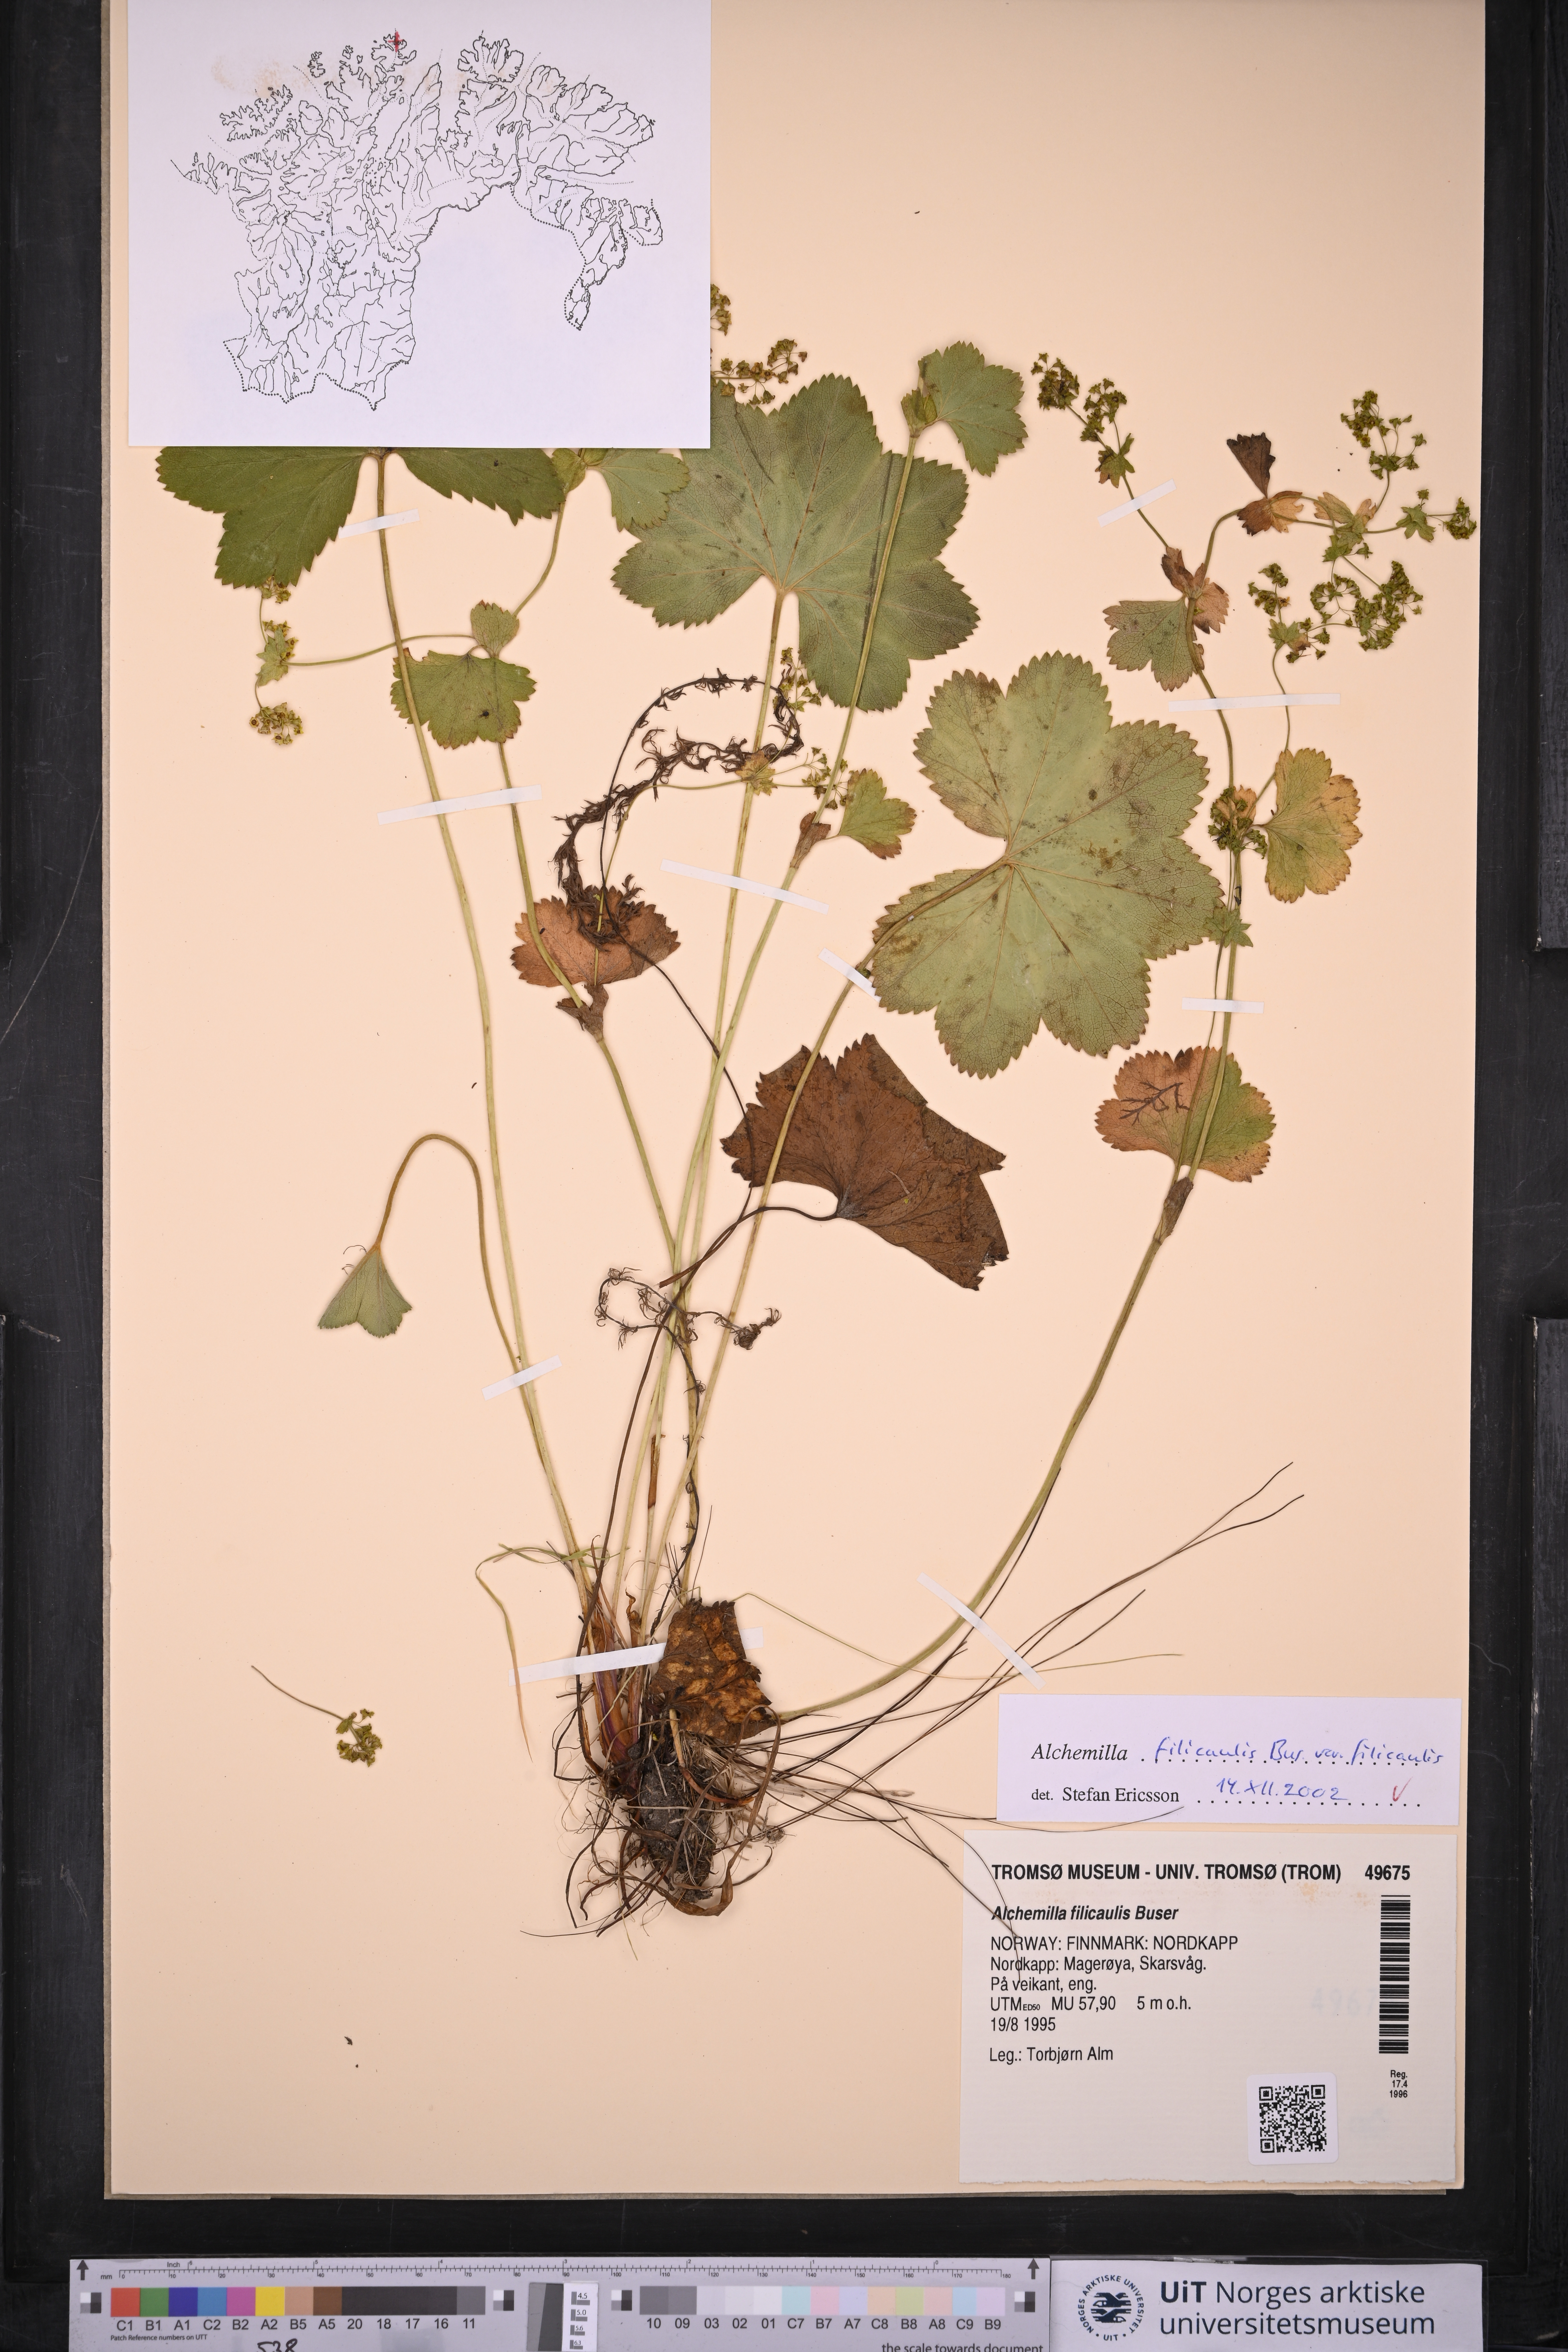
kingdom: Plantae
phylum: Tracheophyta
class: Magnoliopsida
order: Rosales
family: Rosaceae
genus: Alchemilla
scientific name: Alchemilla filicaulis
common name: Hairy lady's-mantle
